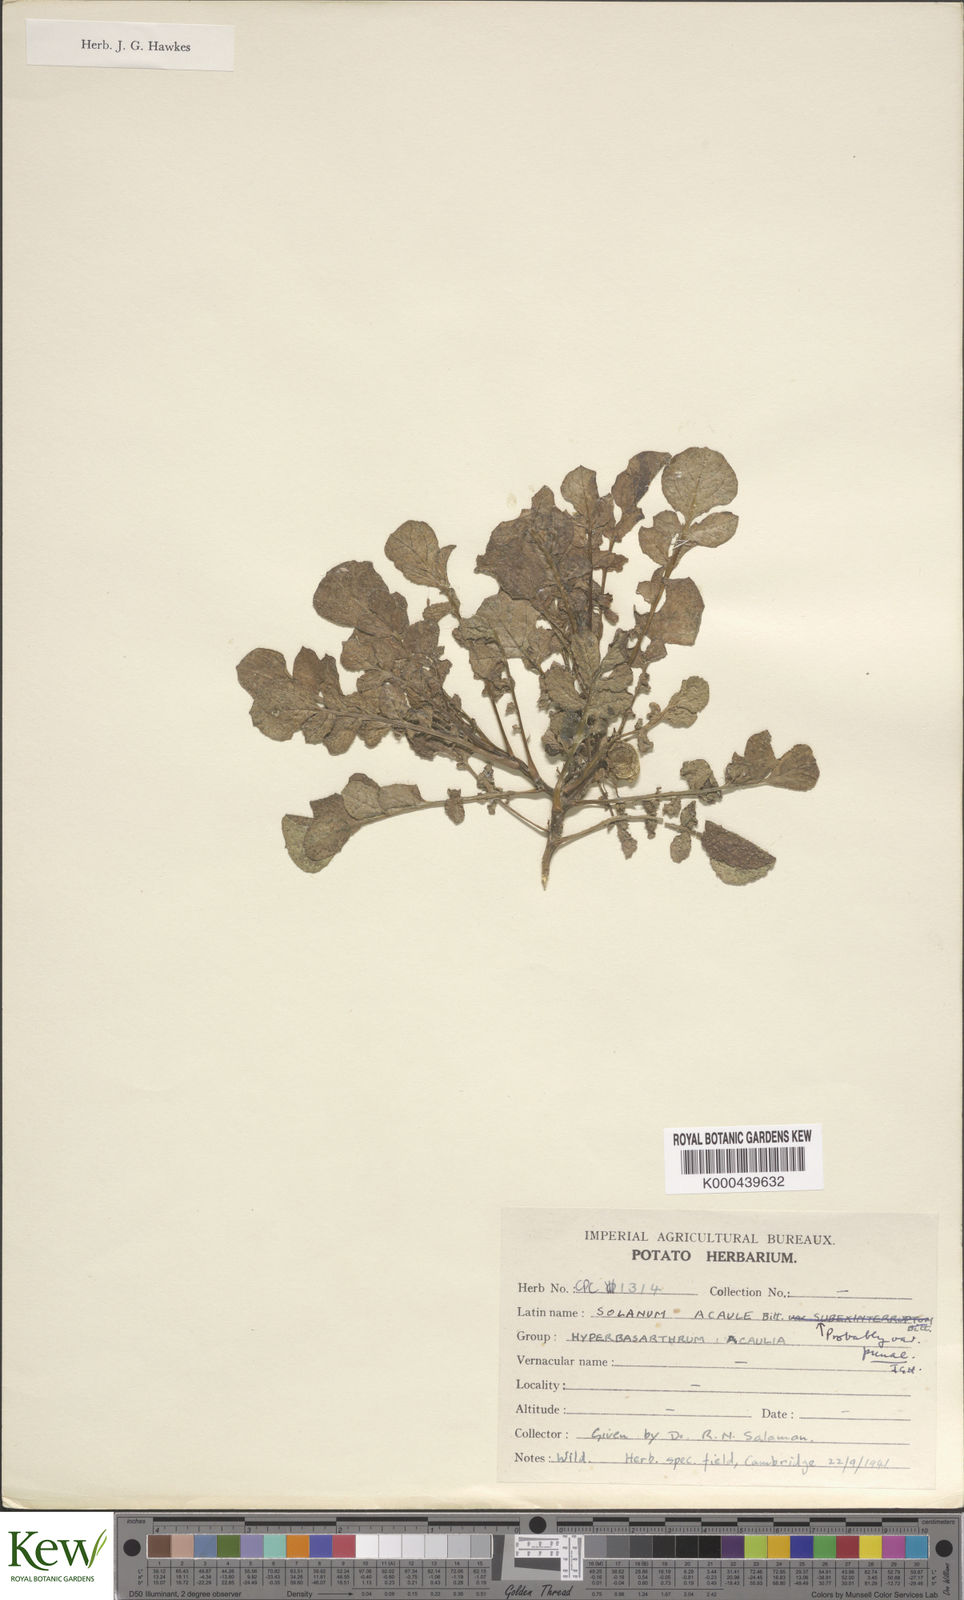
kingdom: Plantae
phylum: Tracheophyta
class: Magnoliopsida
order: Solanales
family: Solanaceae
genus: Solanum
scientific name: Solanum acaule
